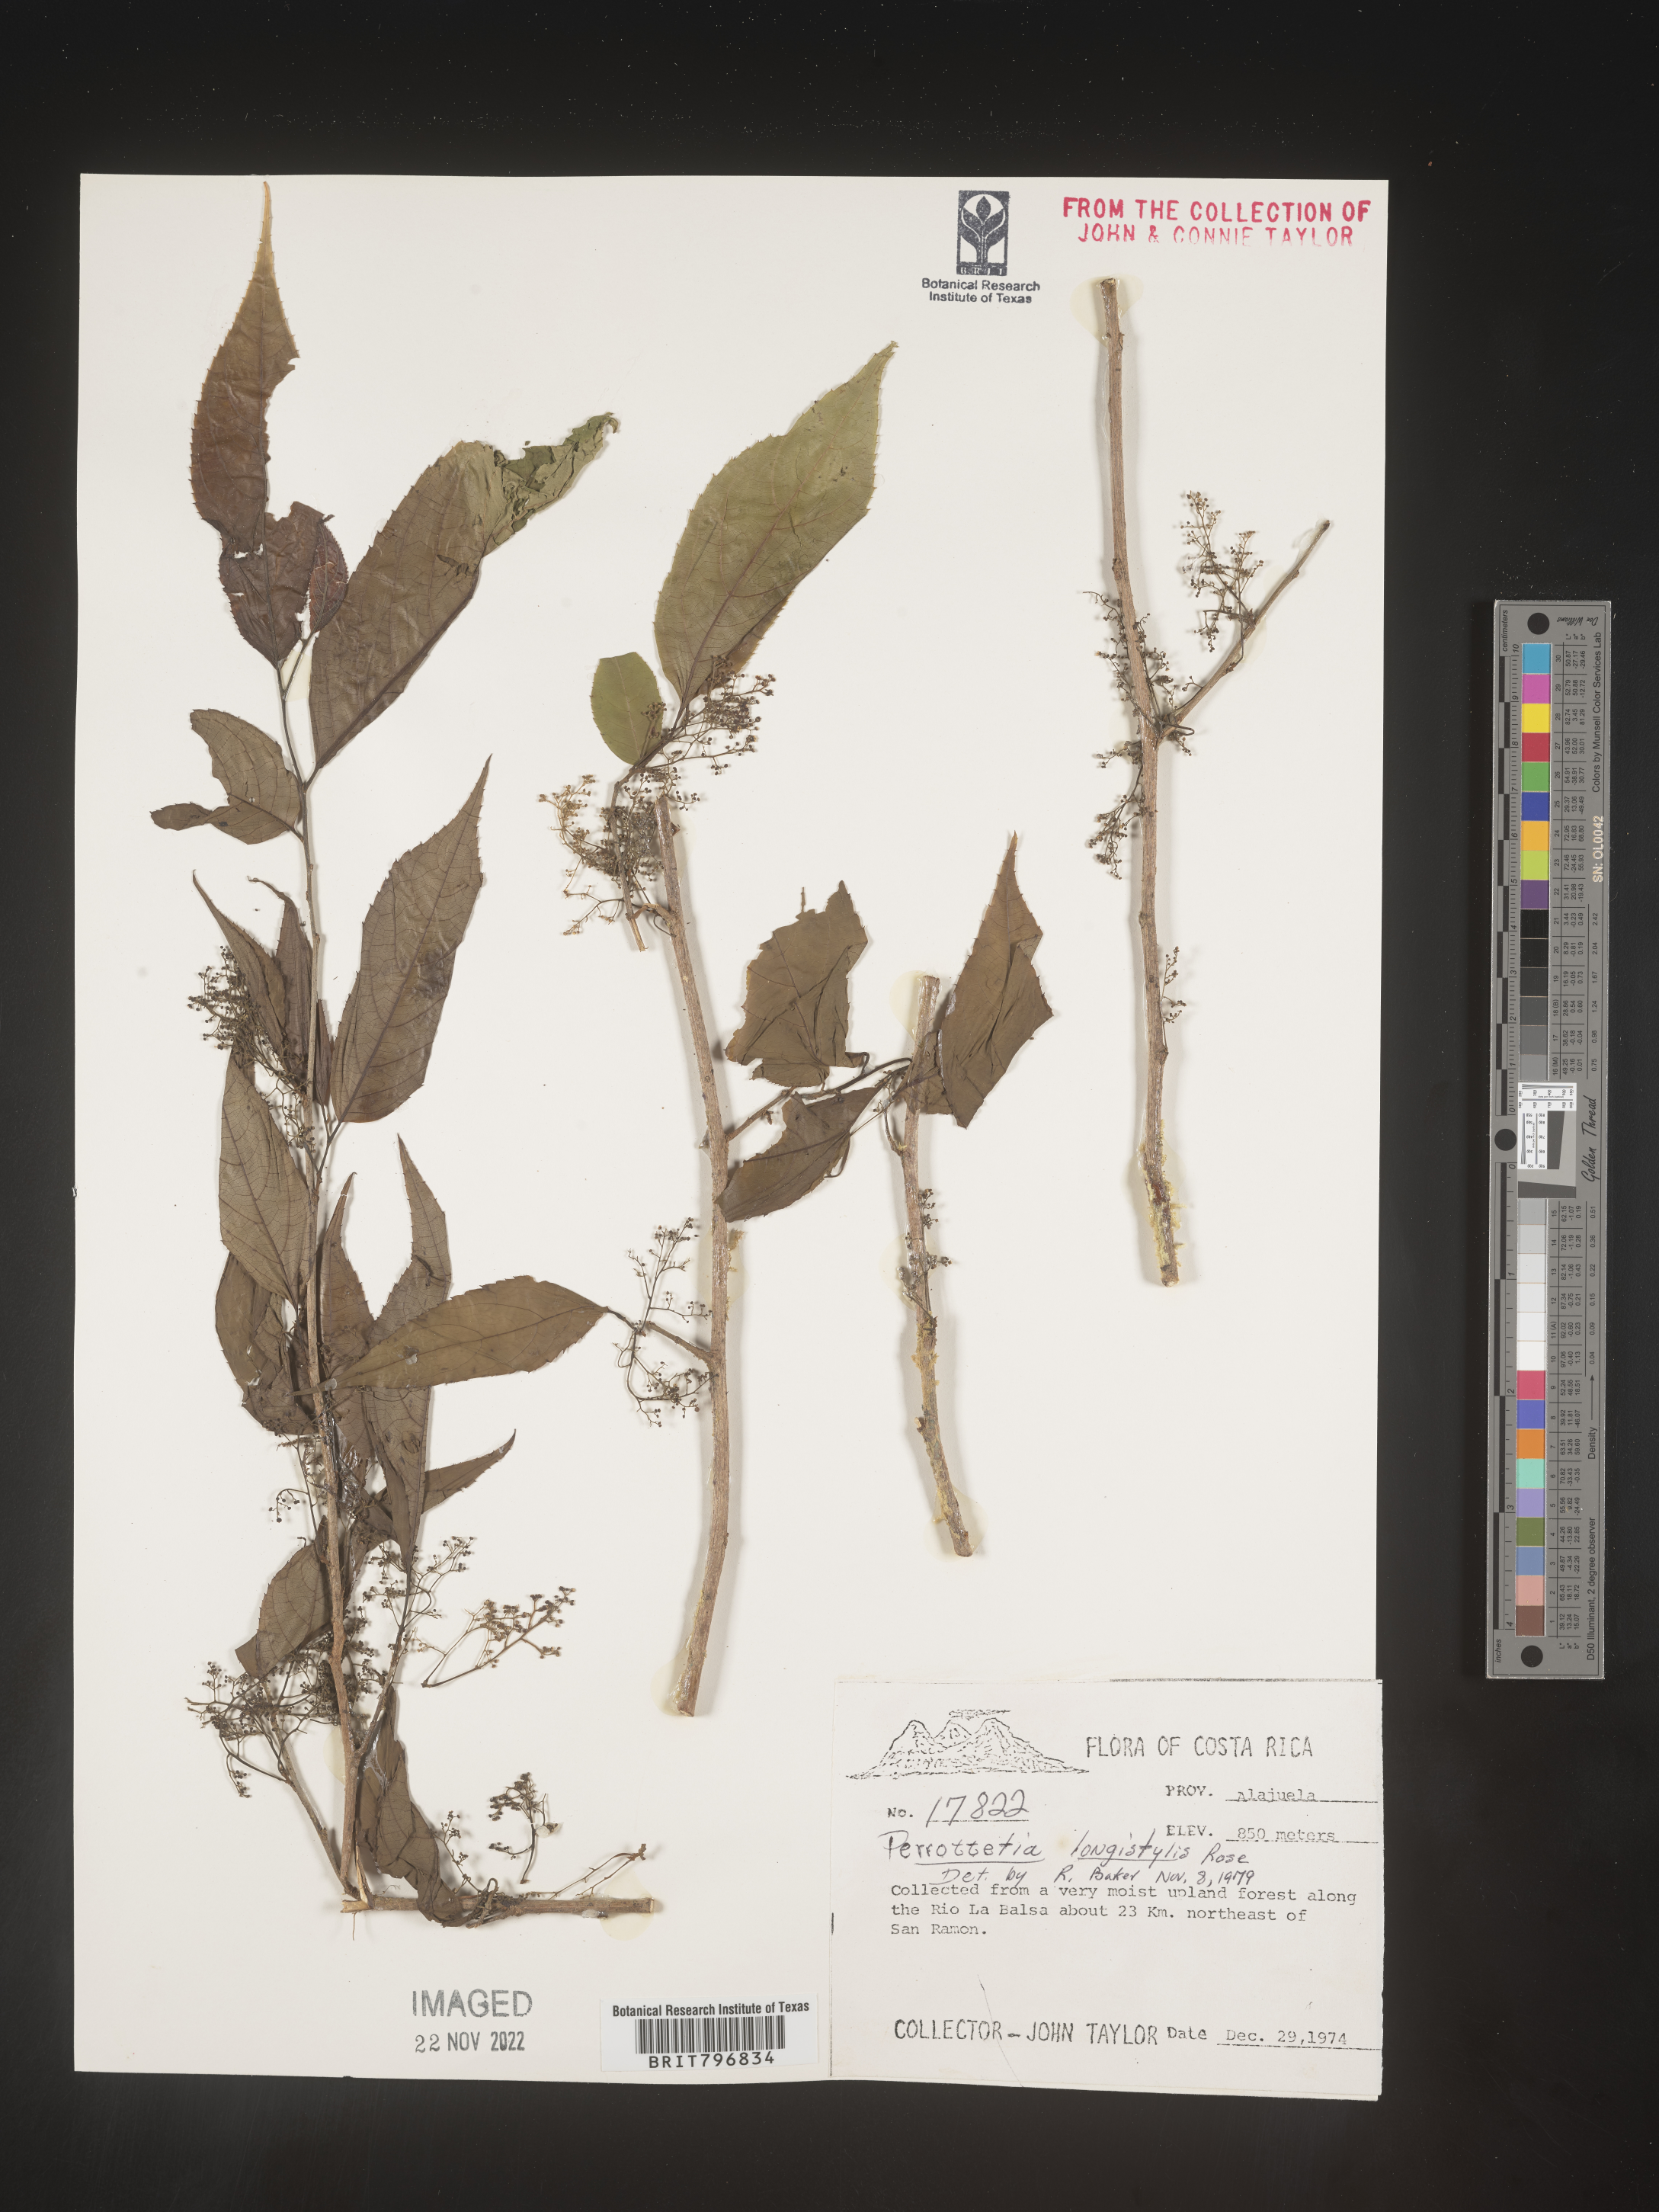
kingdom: Plantae
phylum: Tracheophyta
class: Magnoliopsida
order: Huerteales
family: Dipentodontaceae
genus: Perrottetia
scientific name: Perrottetia
